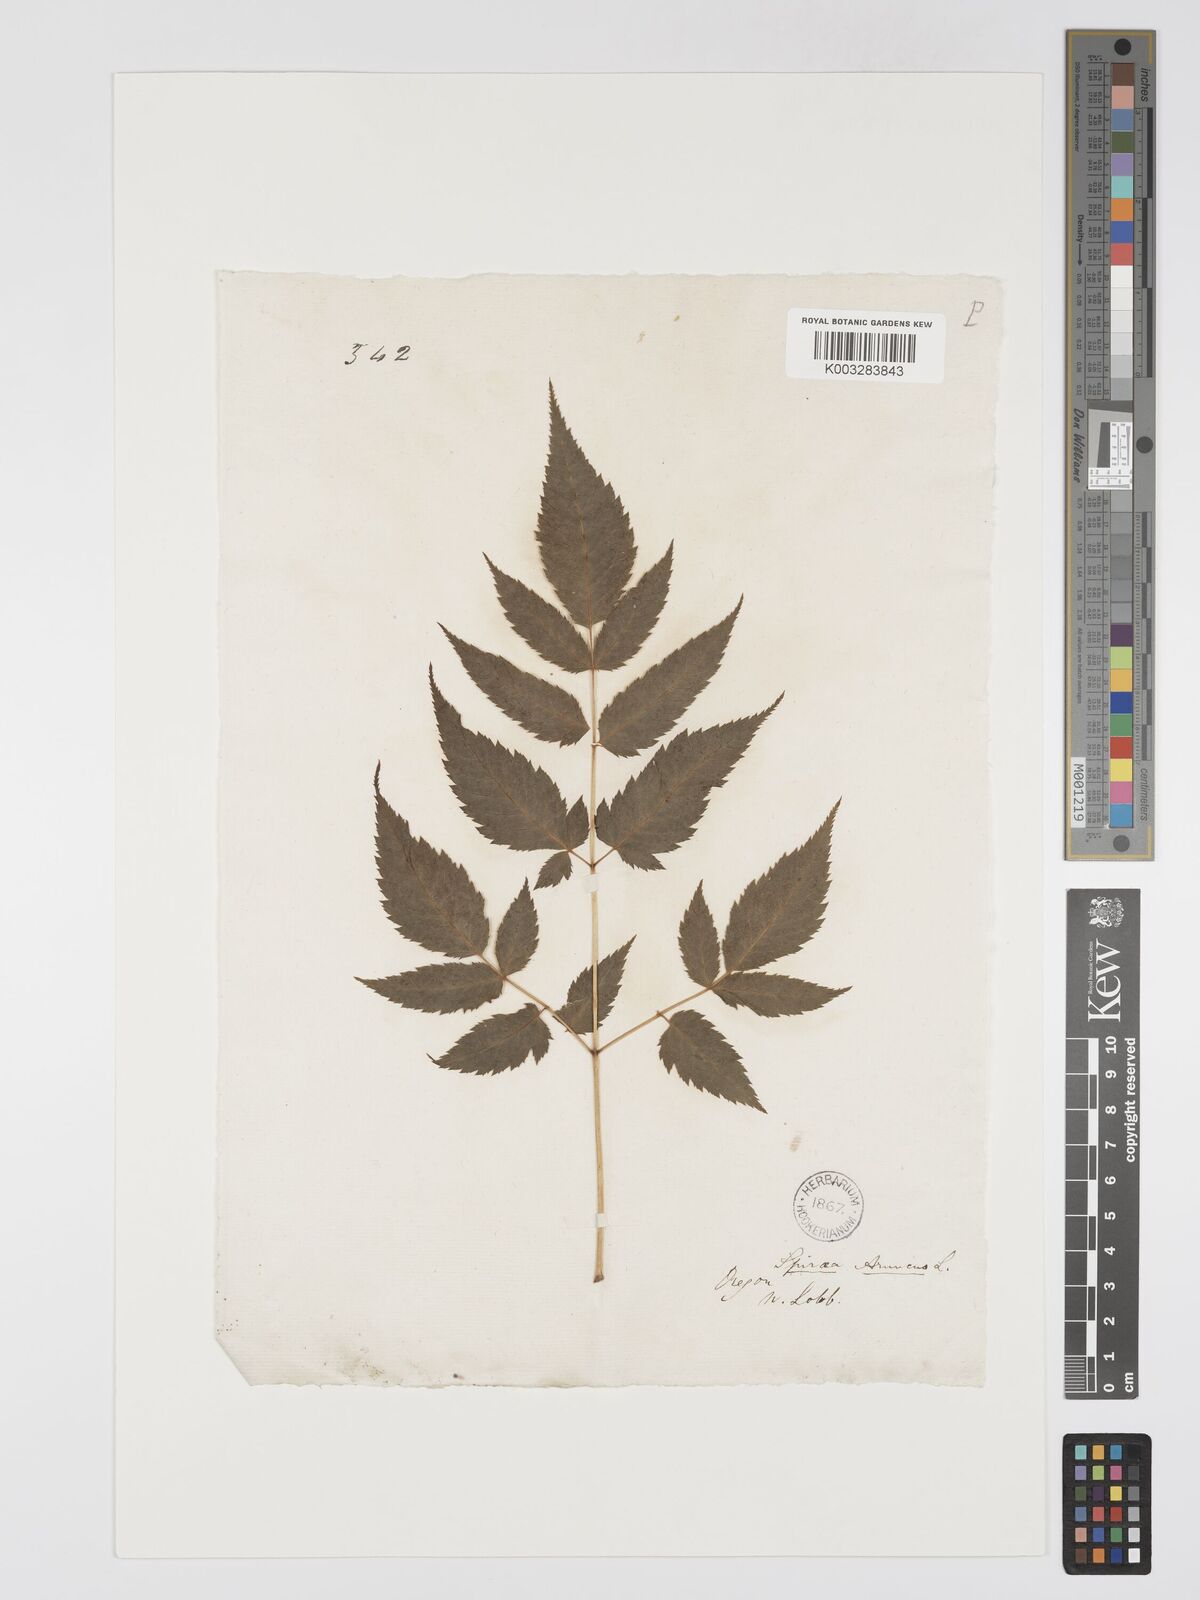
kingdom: Plantae
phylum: Tracheophyta
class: Magnoliopsida
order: Rosales
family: Rosaceae
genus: Aruncus
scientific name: Aruncus dioicus
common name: Buck's-beard
